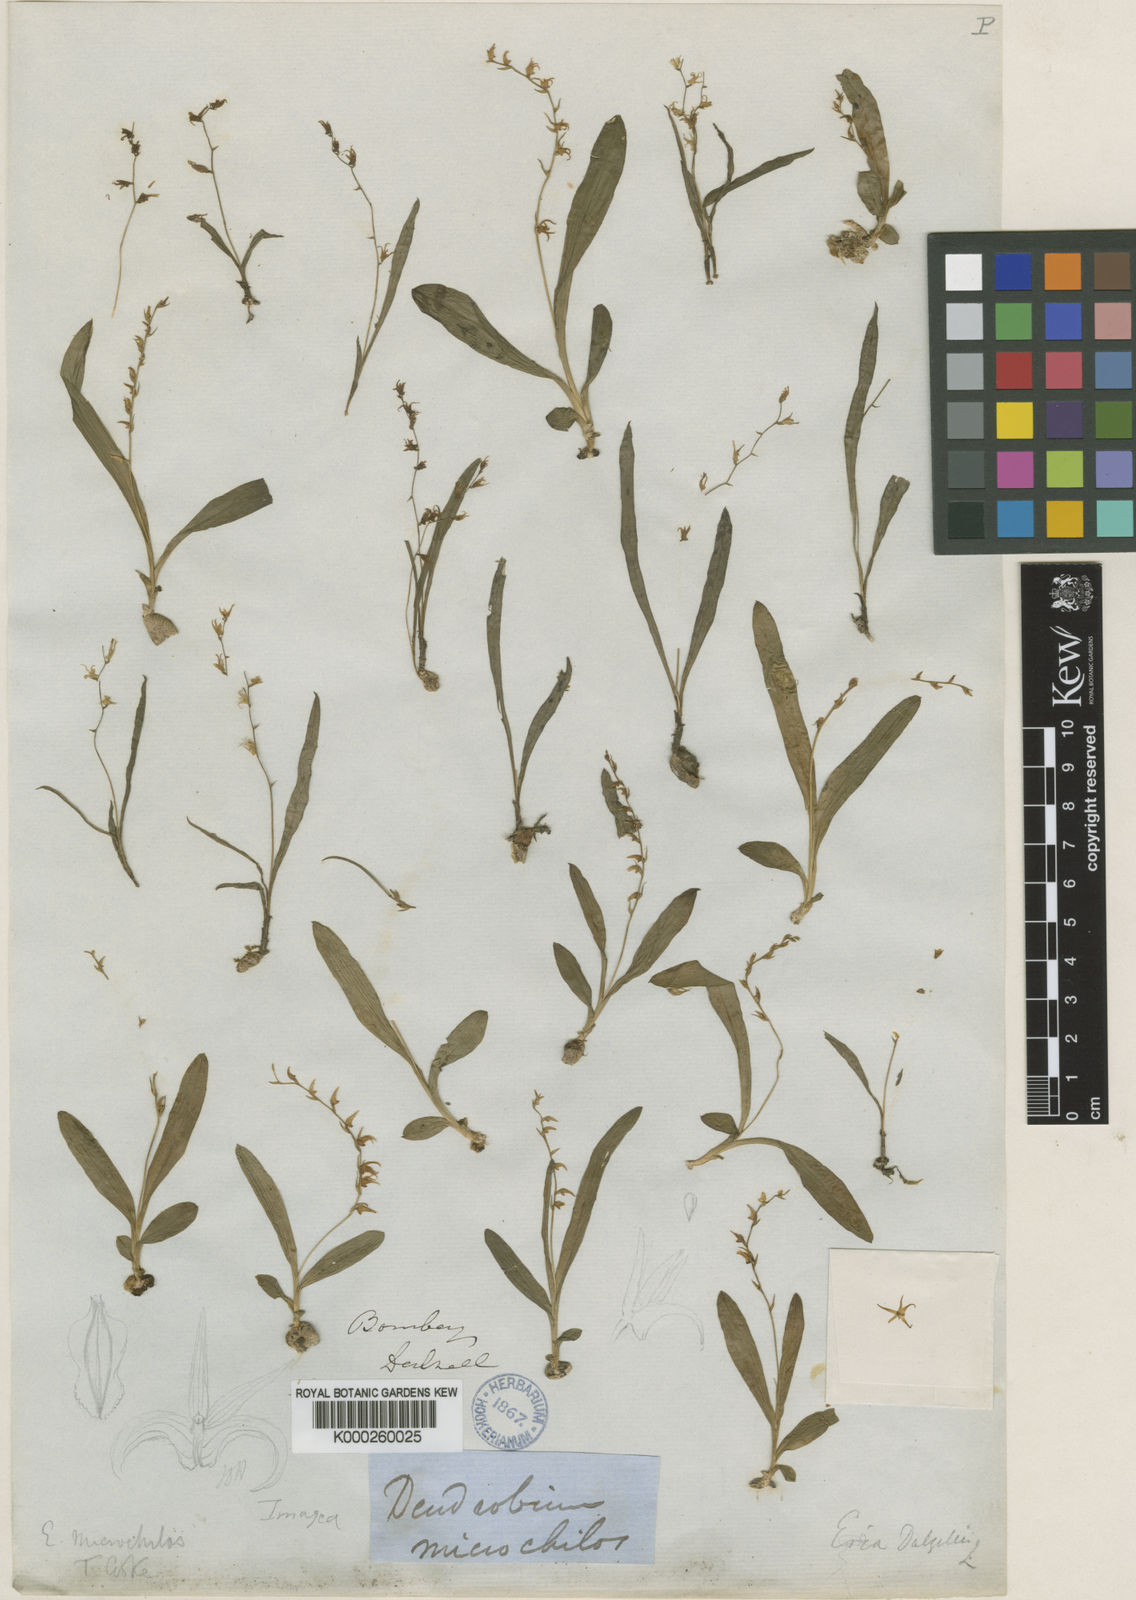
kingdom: Plantae
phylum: Tracheophyta
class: Liliopsida
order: Asparagales
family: Orchidaceae
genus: Porpax
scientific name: Porpax filiformis
